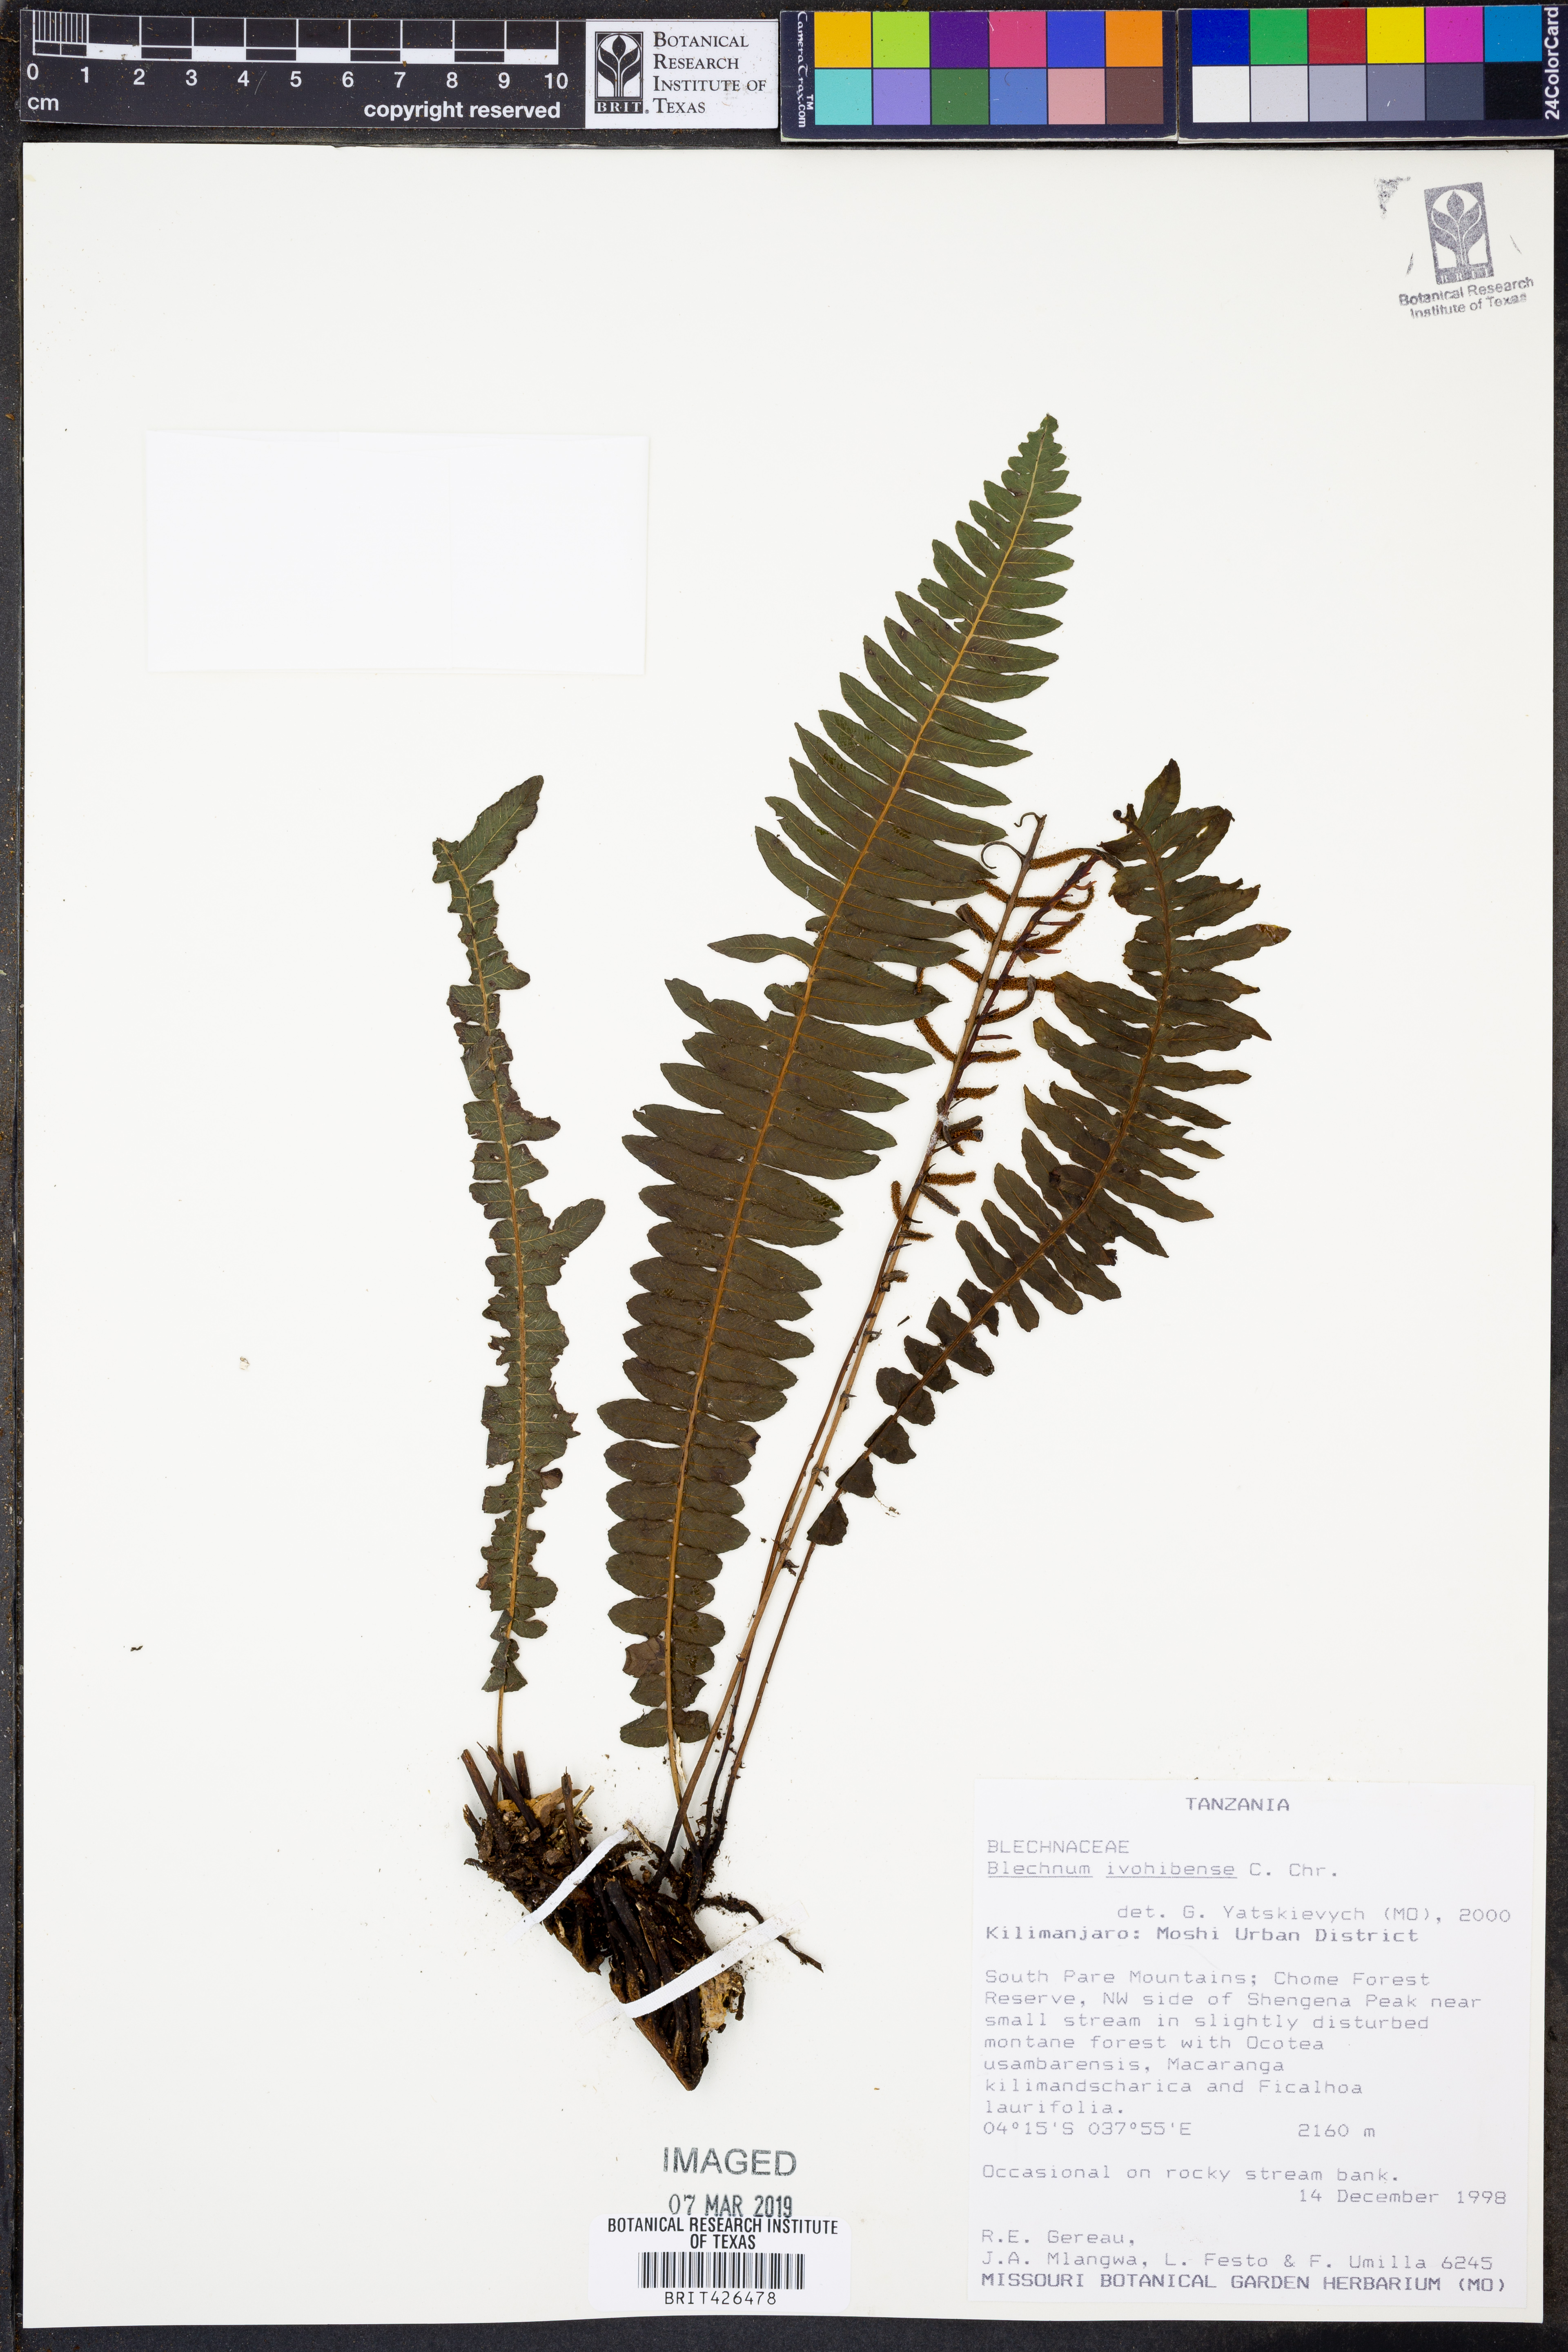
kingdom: Plantae
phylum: Tracheophyta
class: Polypodiopsida
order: Polypodiales
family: Blechnaceae
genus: Cranfillia
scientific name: Cranfillia bakeri
